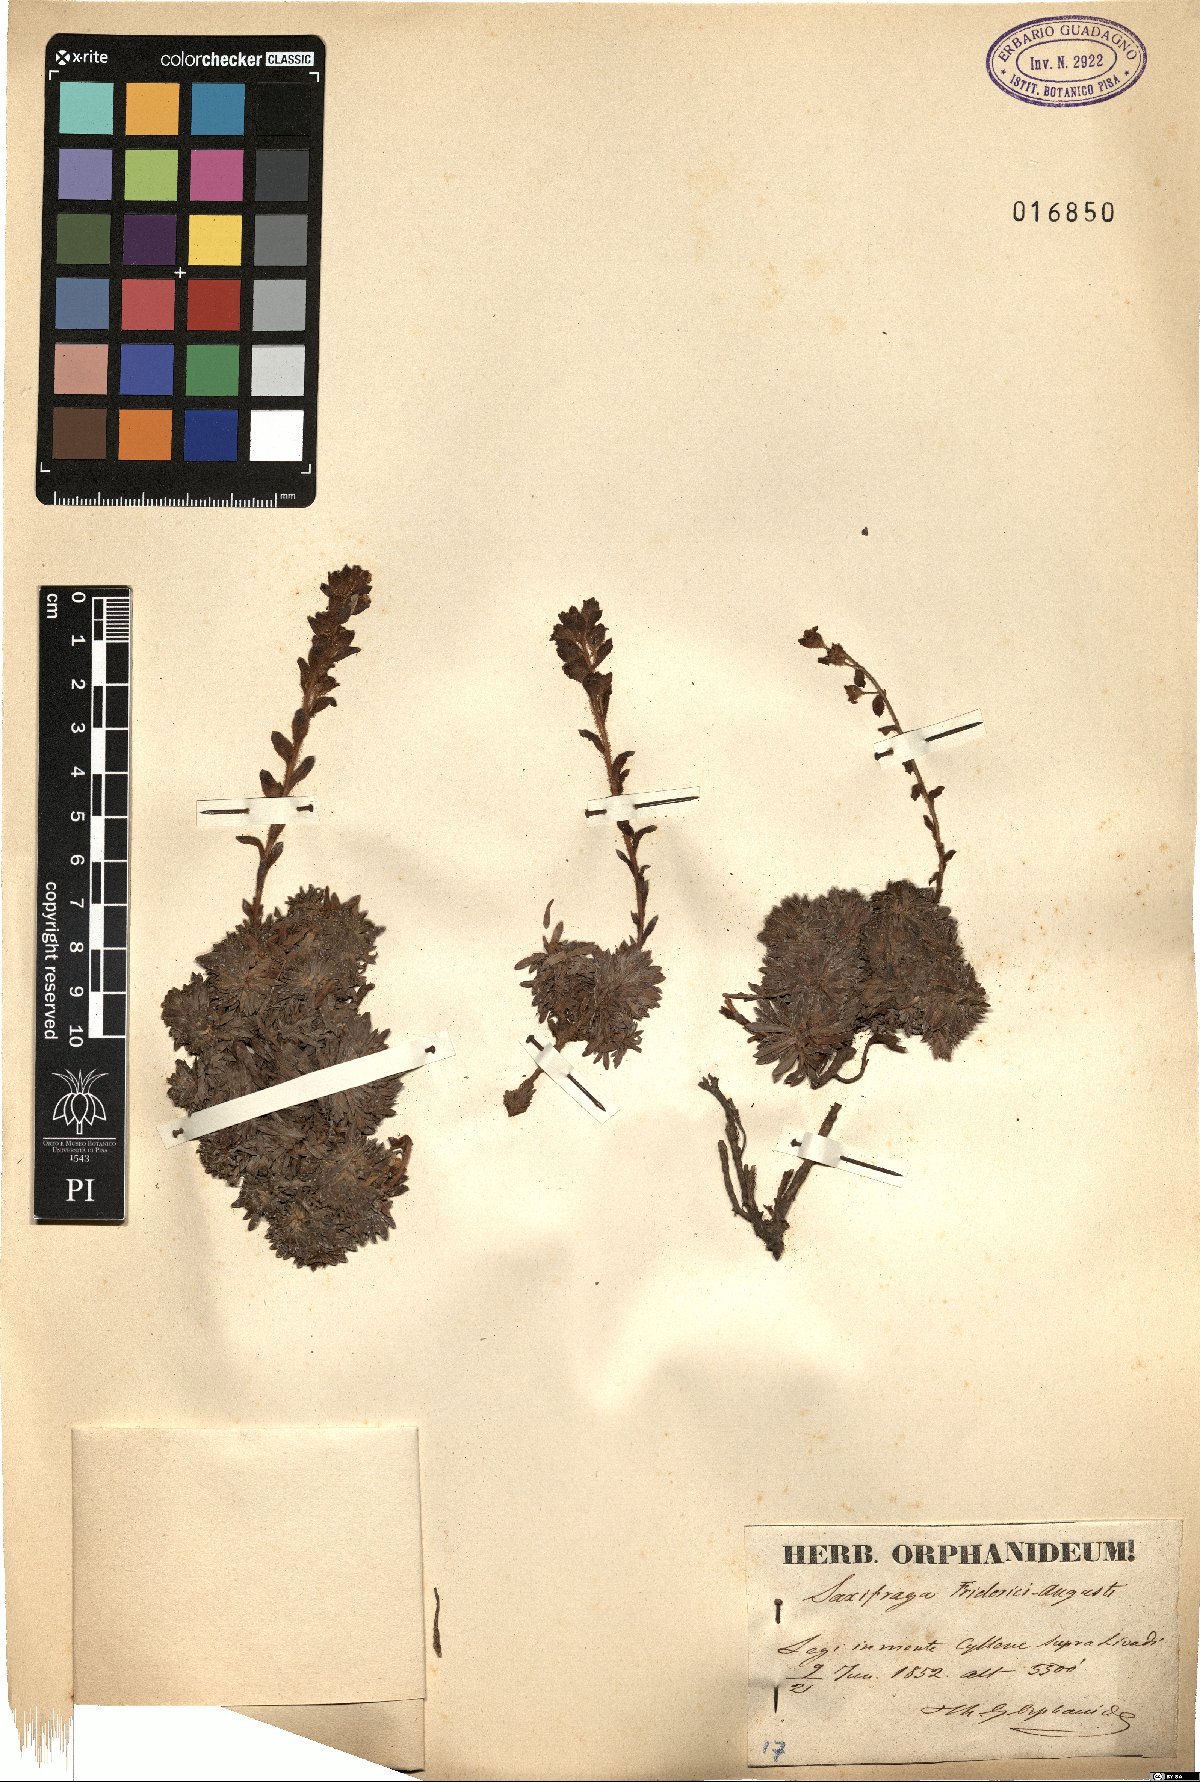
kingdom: Plantae
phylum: Tracheophyta
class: Magnoliopsida
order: Saxifragales
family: Saxifragaceae
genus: Saxifraga
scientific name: Saxifraga federici-augusti
